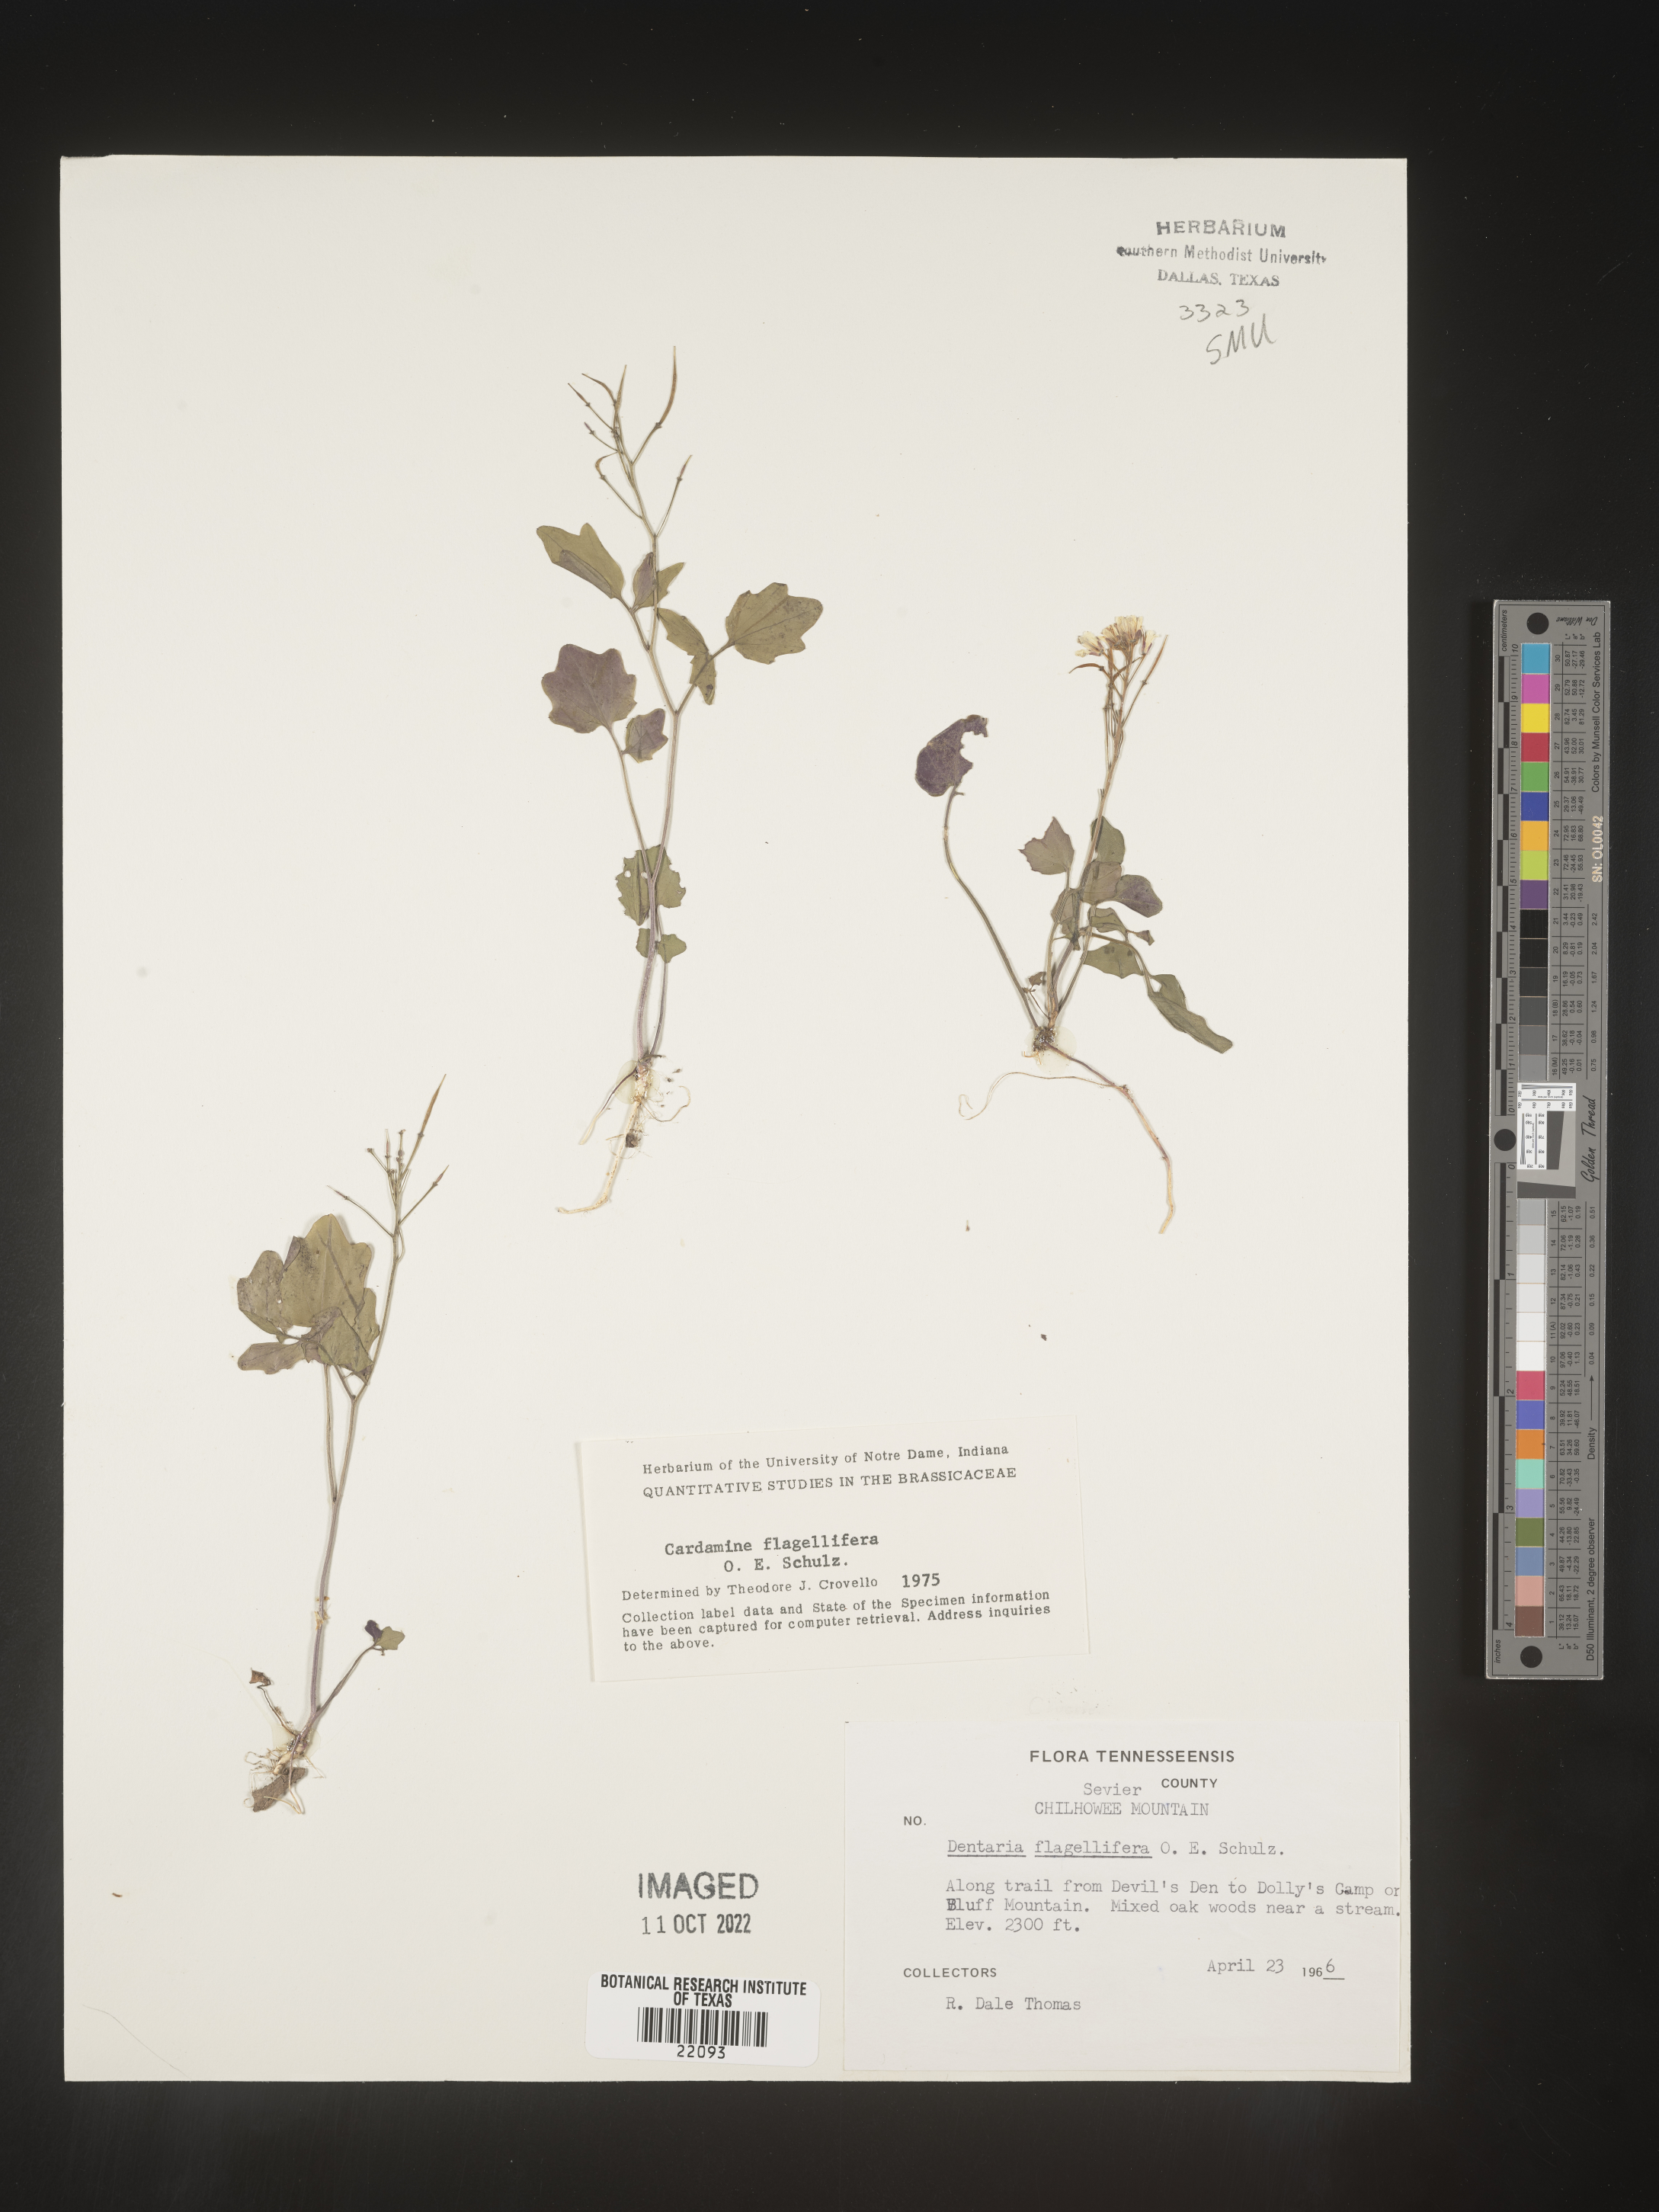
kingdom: Plantae
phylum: Tracheophyta
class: Magnoliopsida
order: Brassicales
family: Brassicaceae
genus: Cardamine
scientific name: Cardamine
